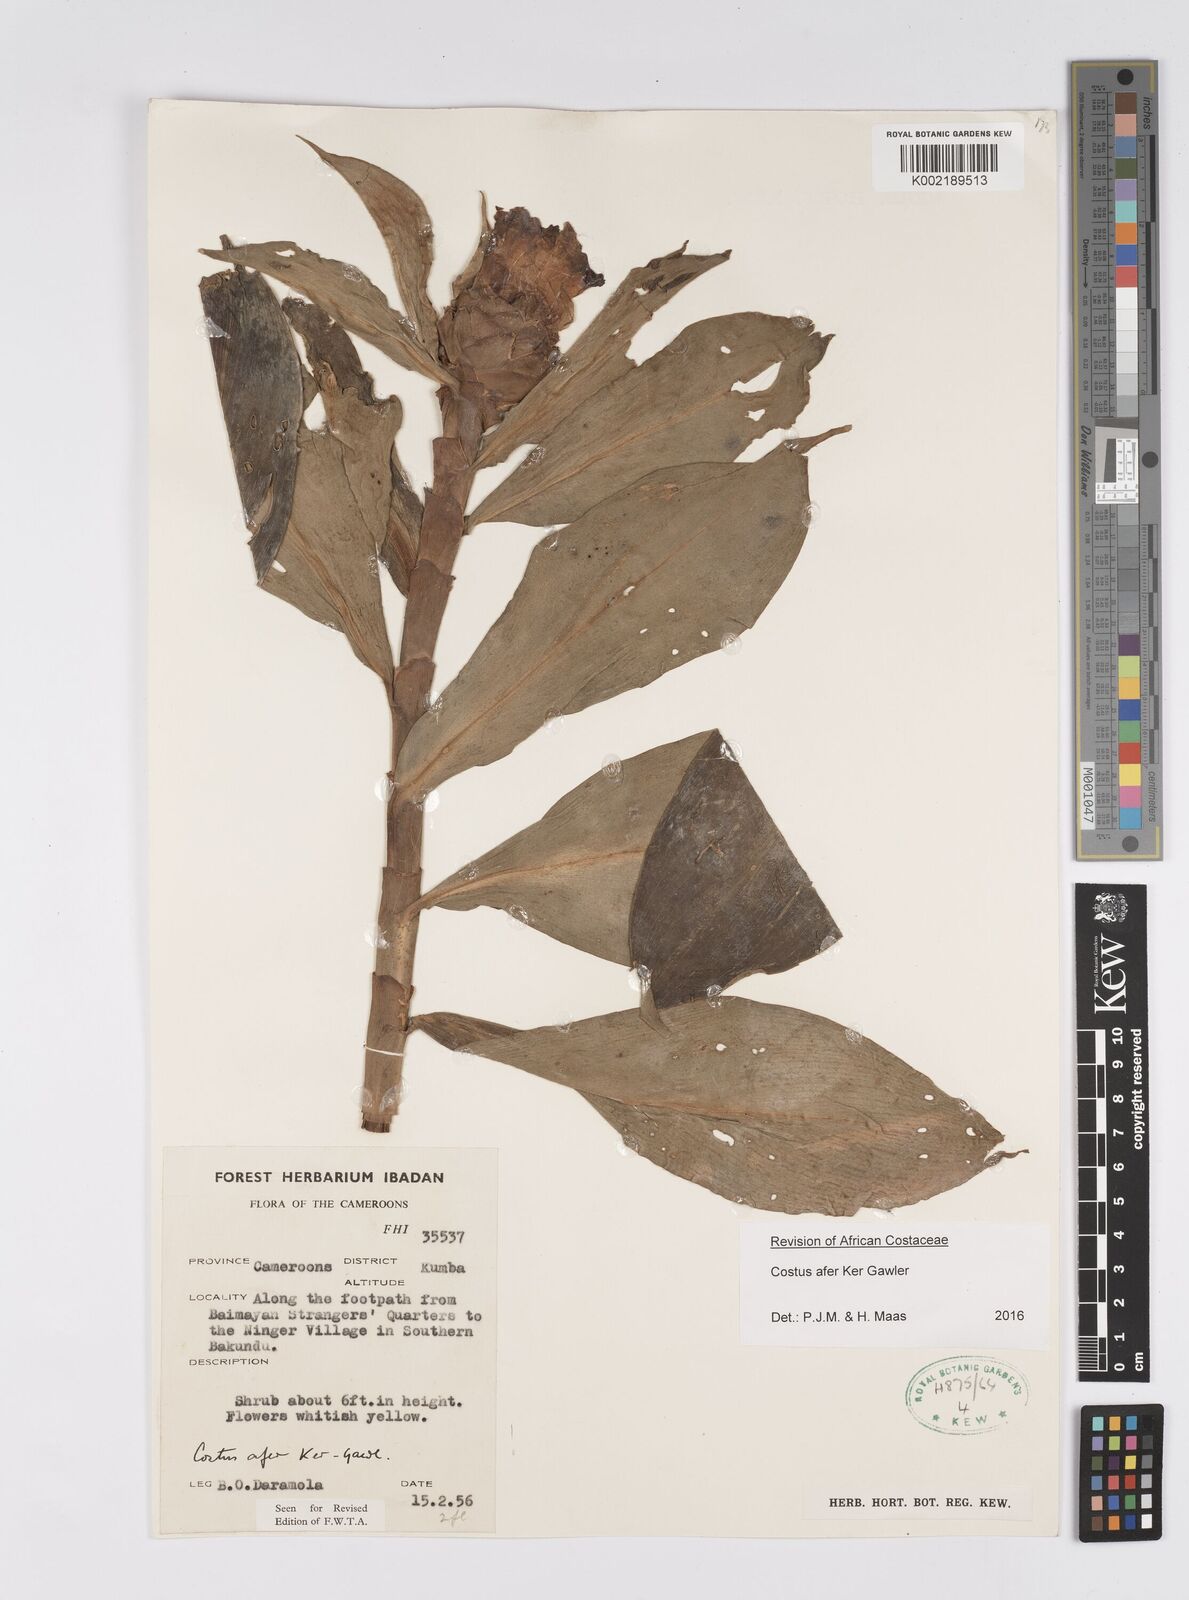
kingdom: Plantae
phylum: Tracheophyta
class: Liliopsida
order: Zingiberales
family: Costaceae
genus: Costus
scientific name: Costus afer
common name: Spiral-ginger
